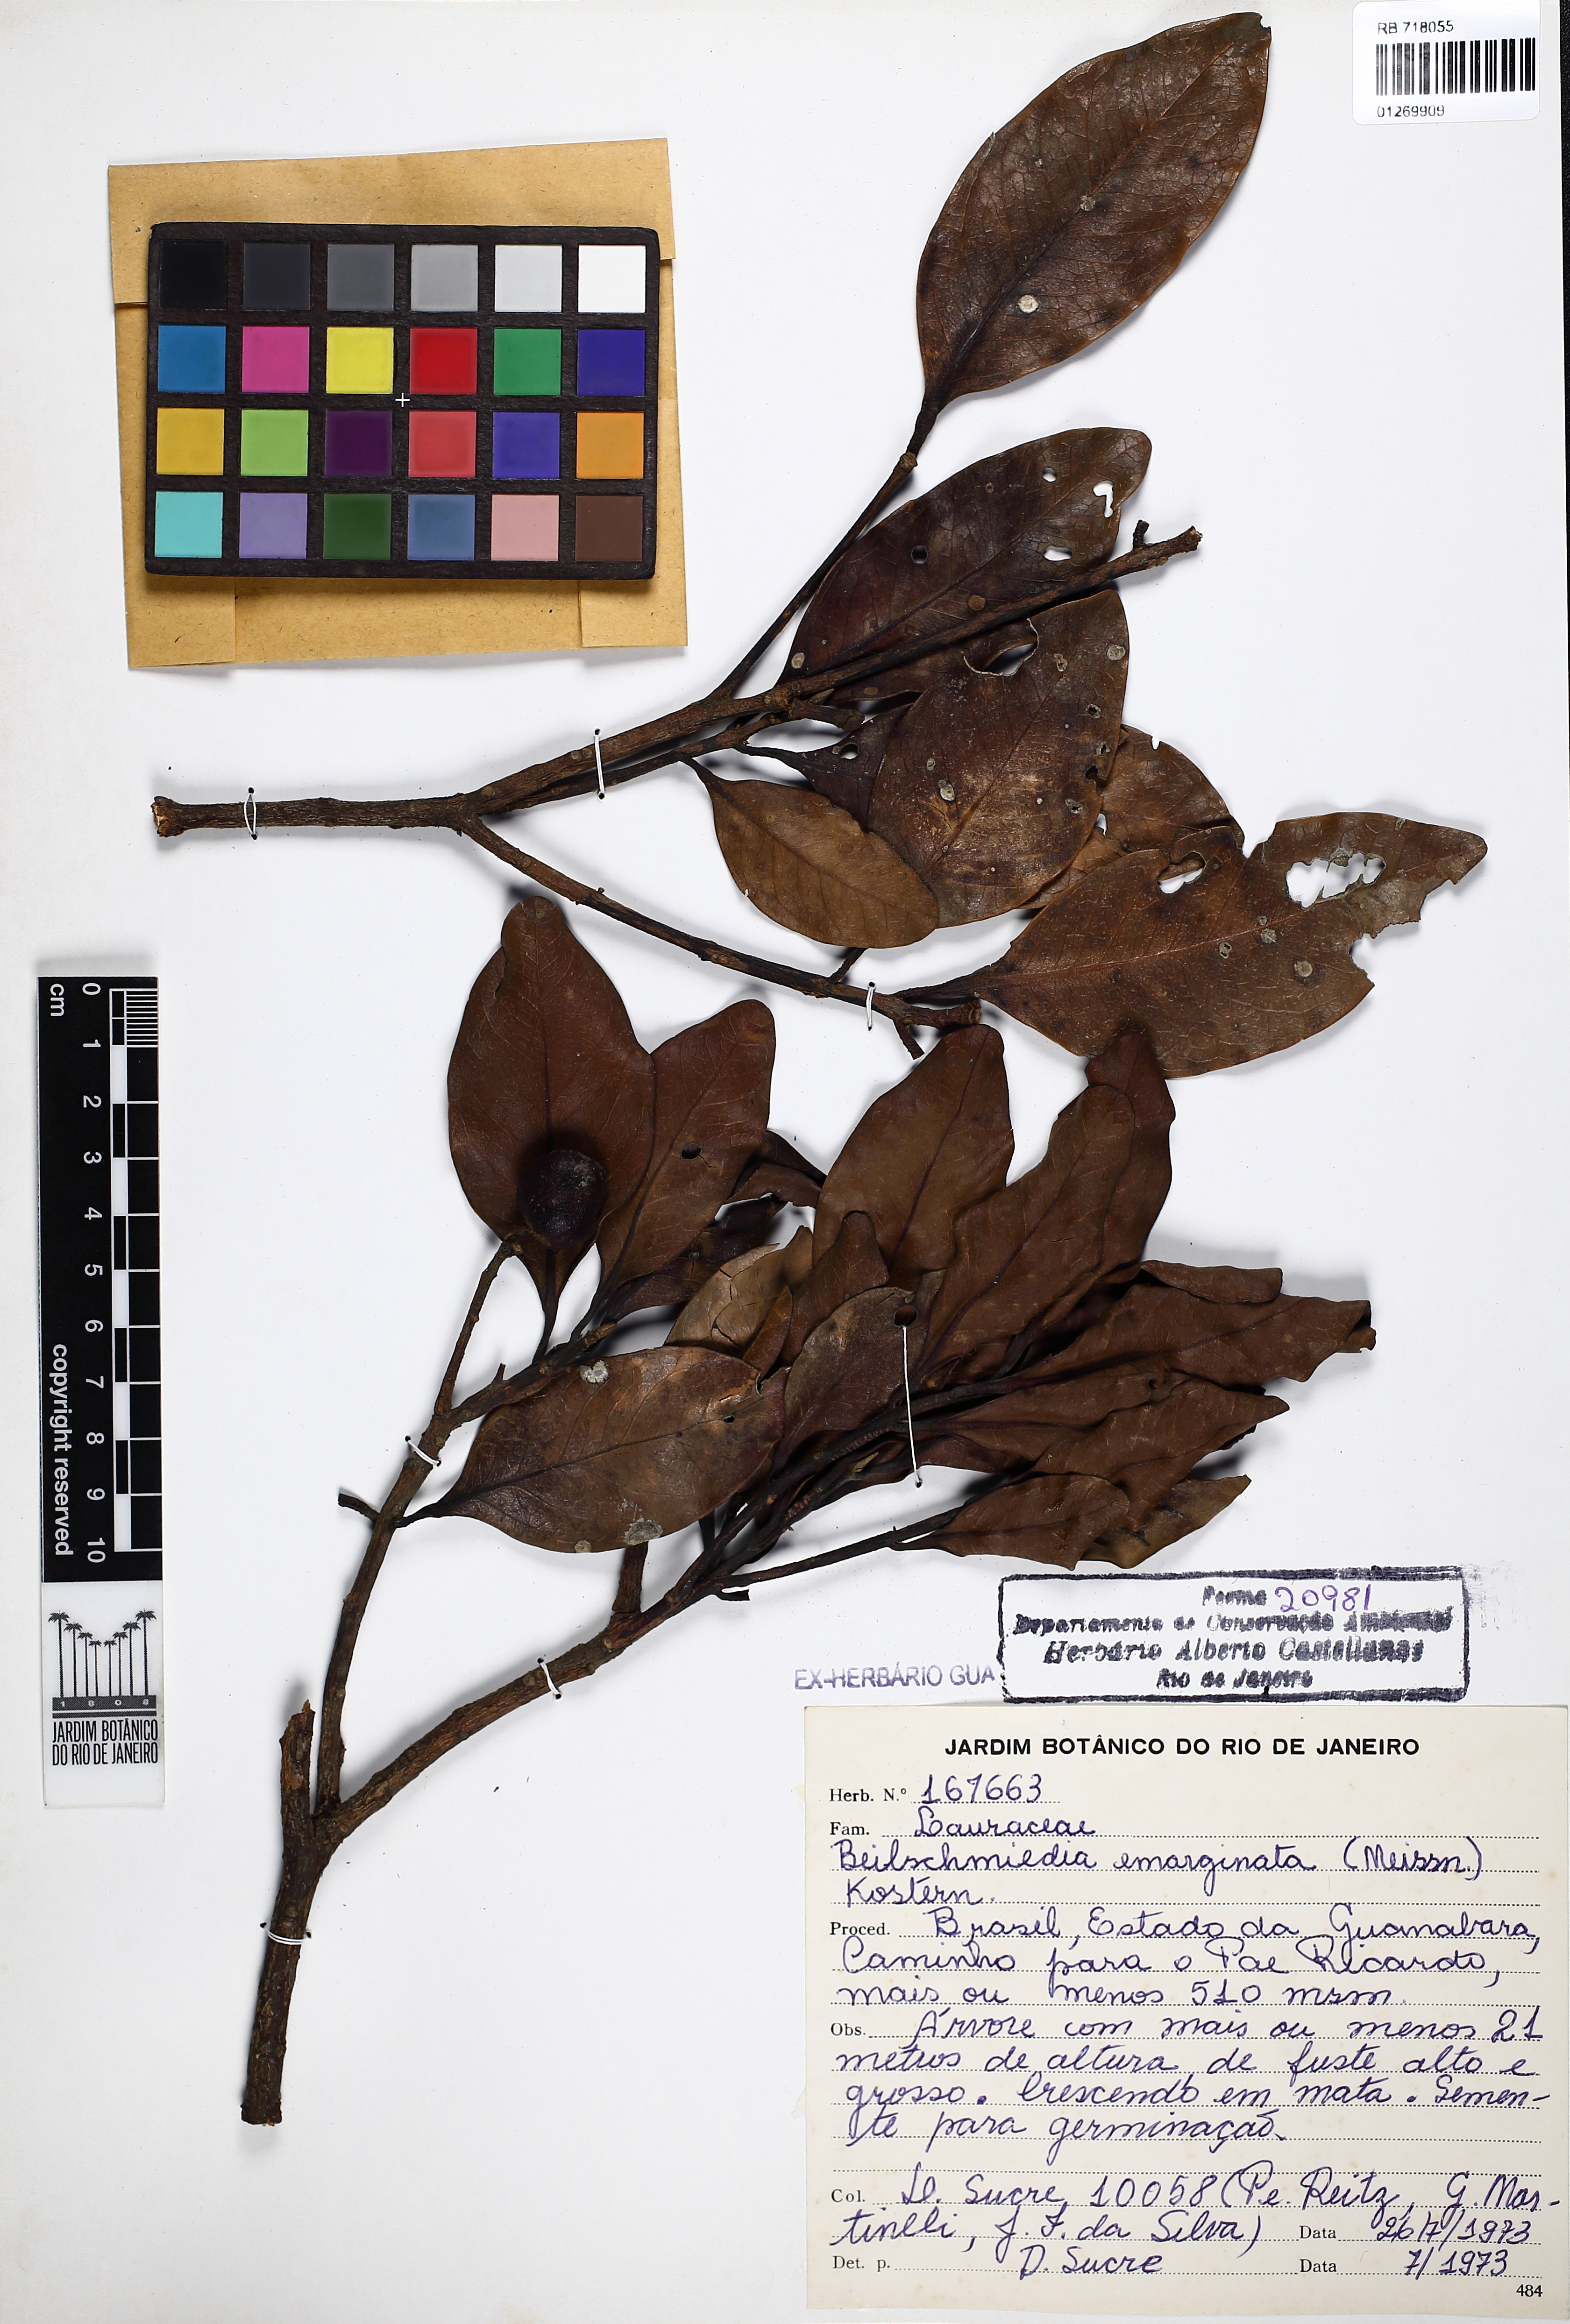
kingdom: Plantae
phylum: Tracheophyta
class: Magnoliopsida
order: Laurales
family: Lauraceae
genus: Beilschmiedia
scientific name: Beilschmiedia emarginata
